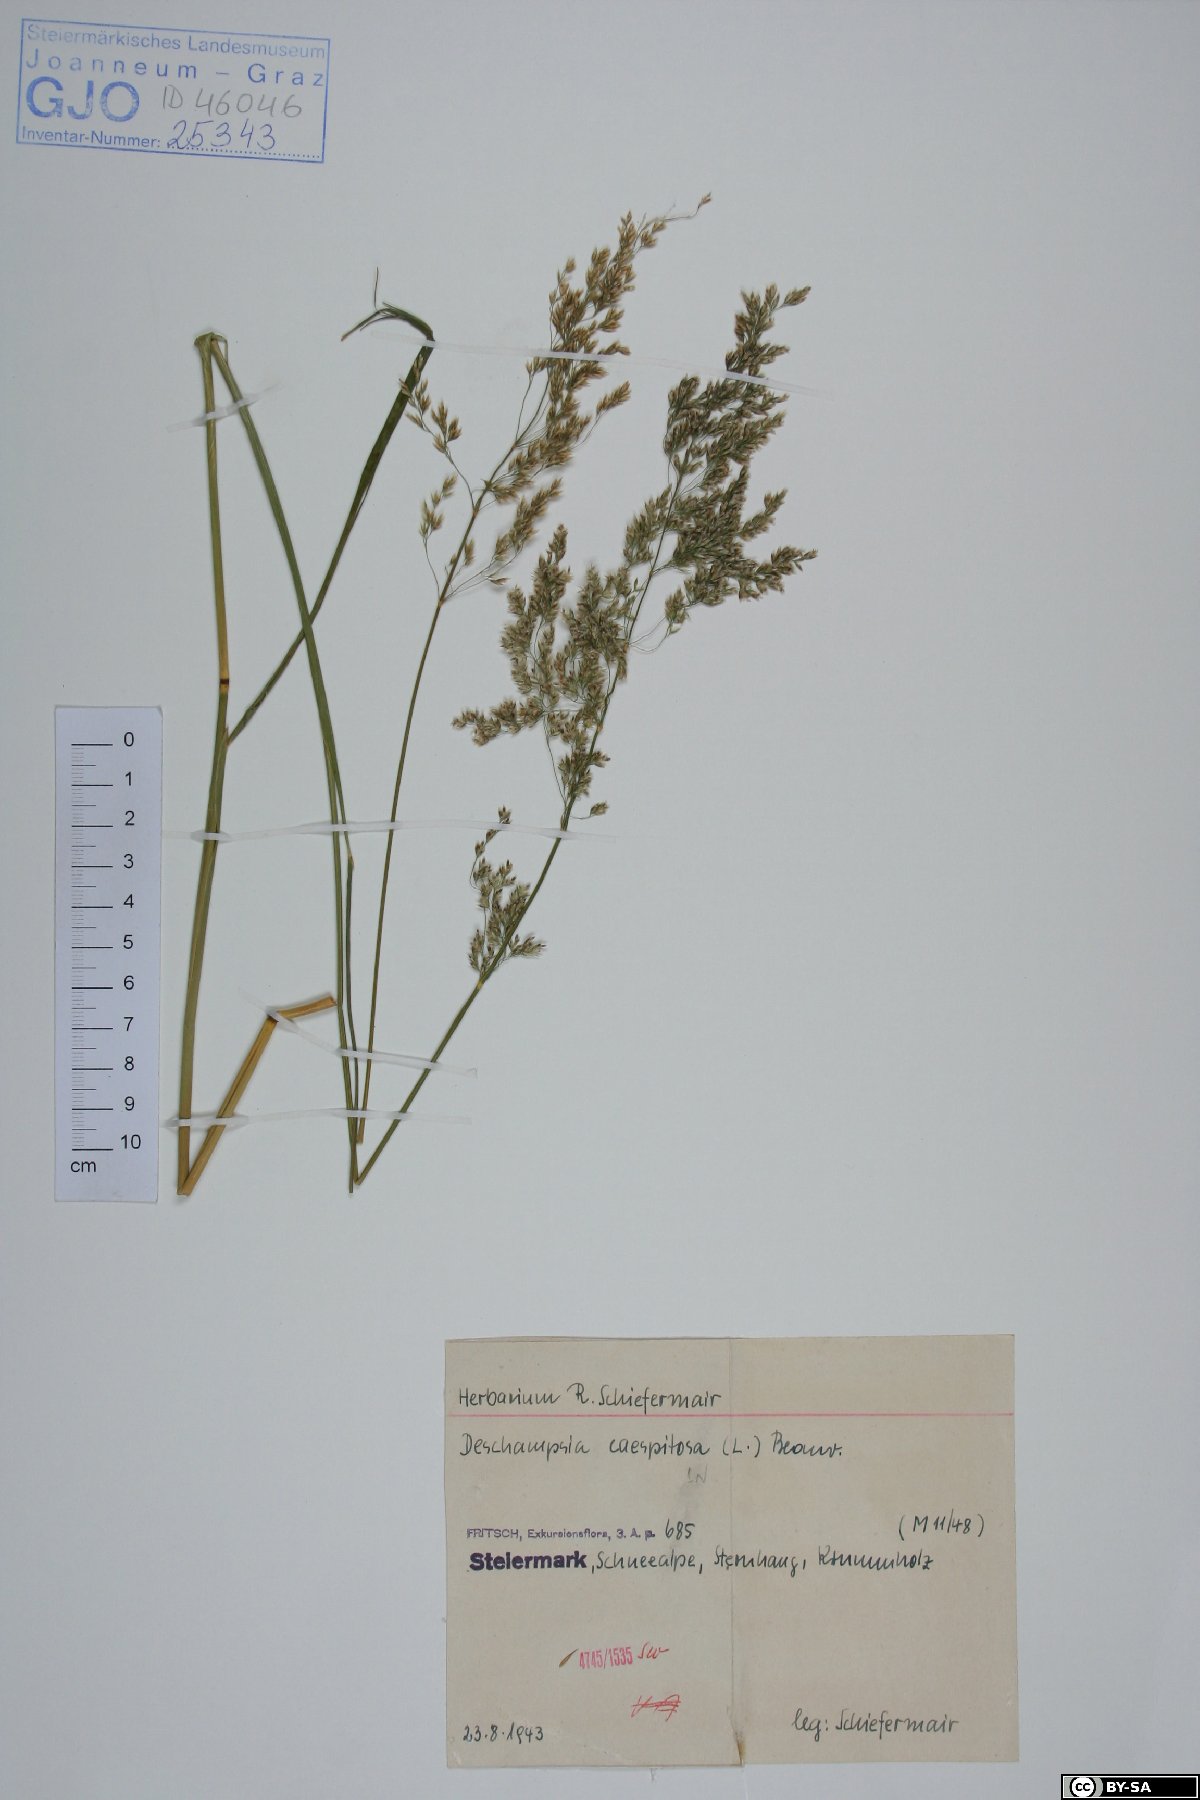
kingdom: Plantae
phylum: Tracheophyta
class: Liliopsida
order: Poales
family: Poaceae
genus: Deschampsia
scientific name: Deschampsia cespitosa
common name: Tufted hair-grass
